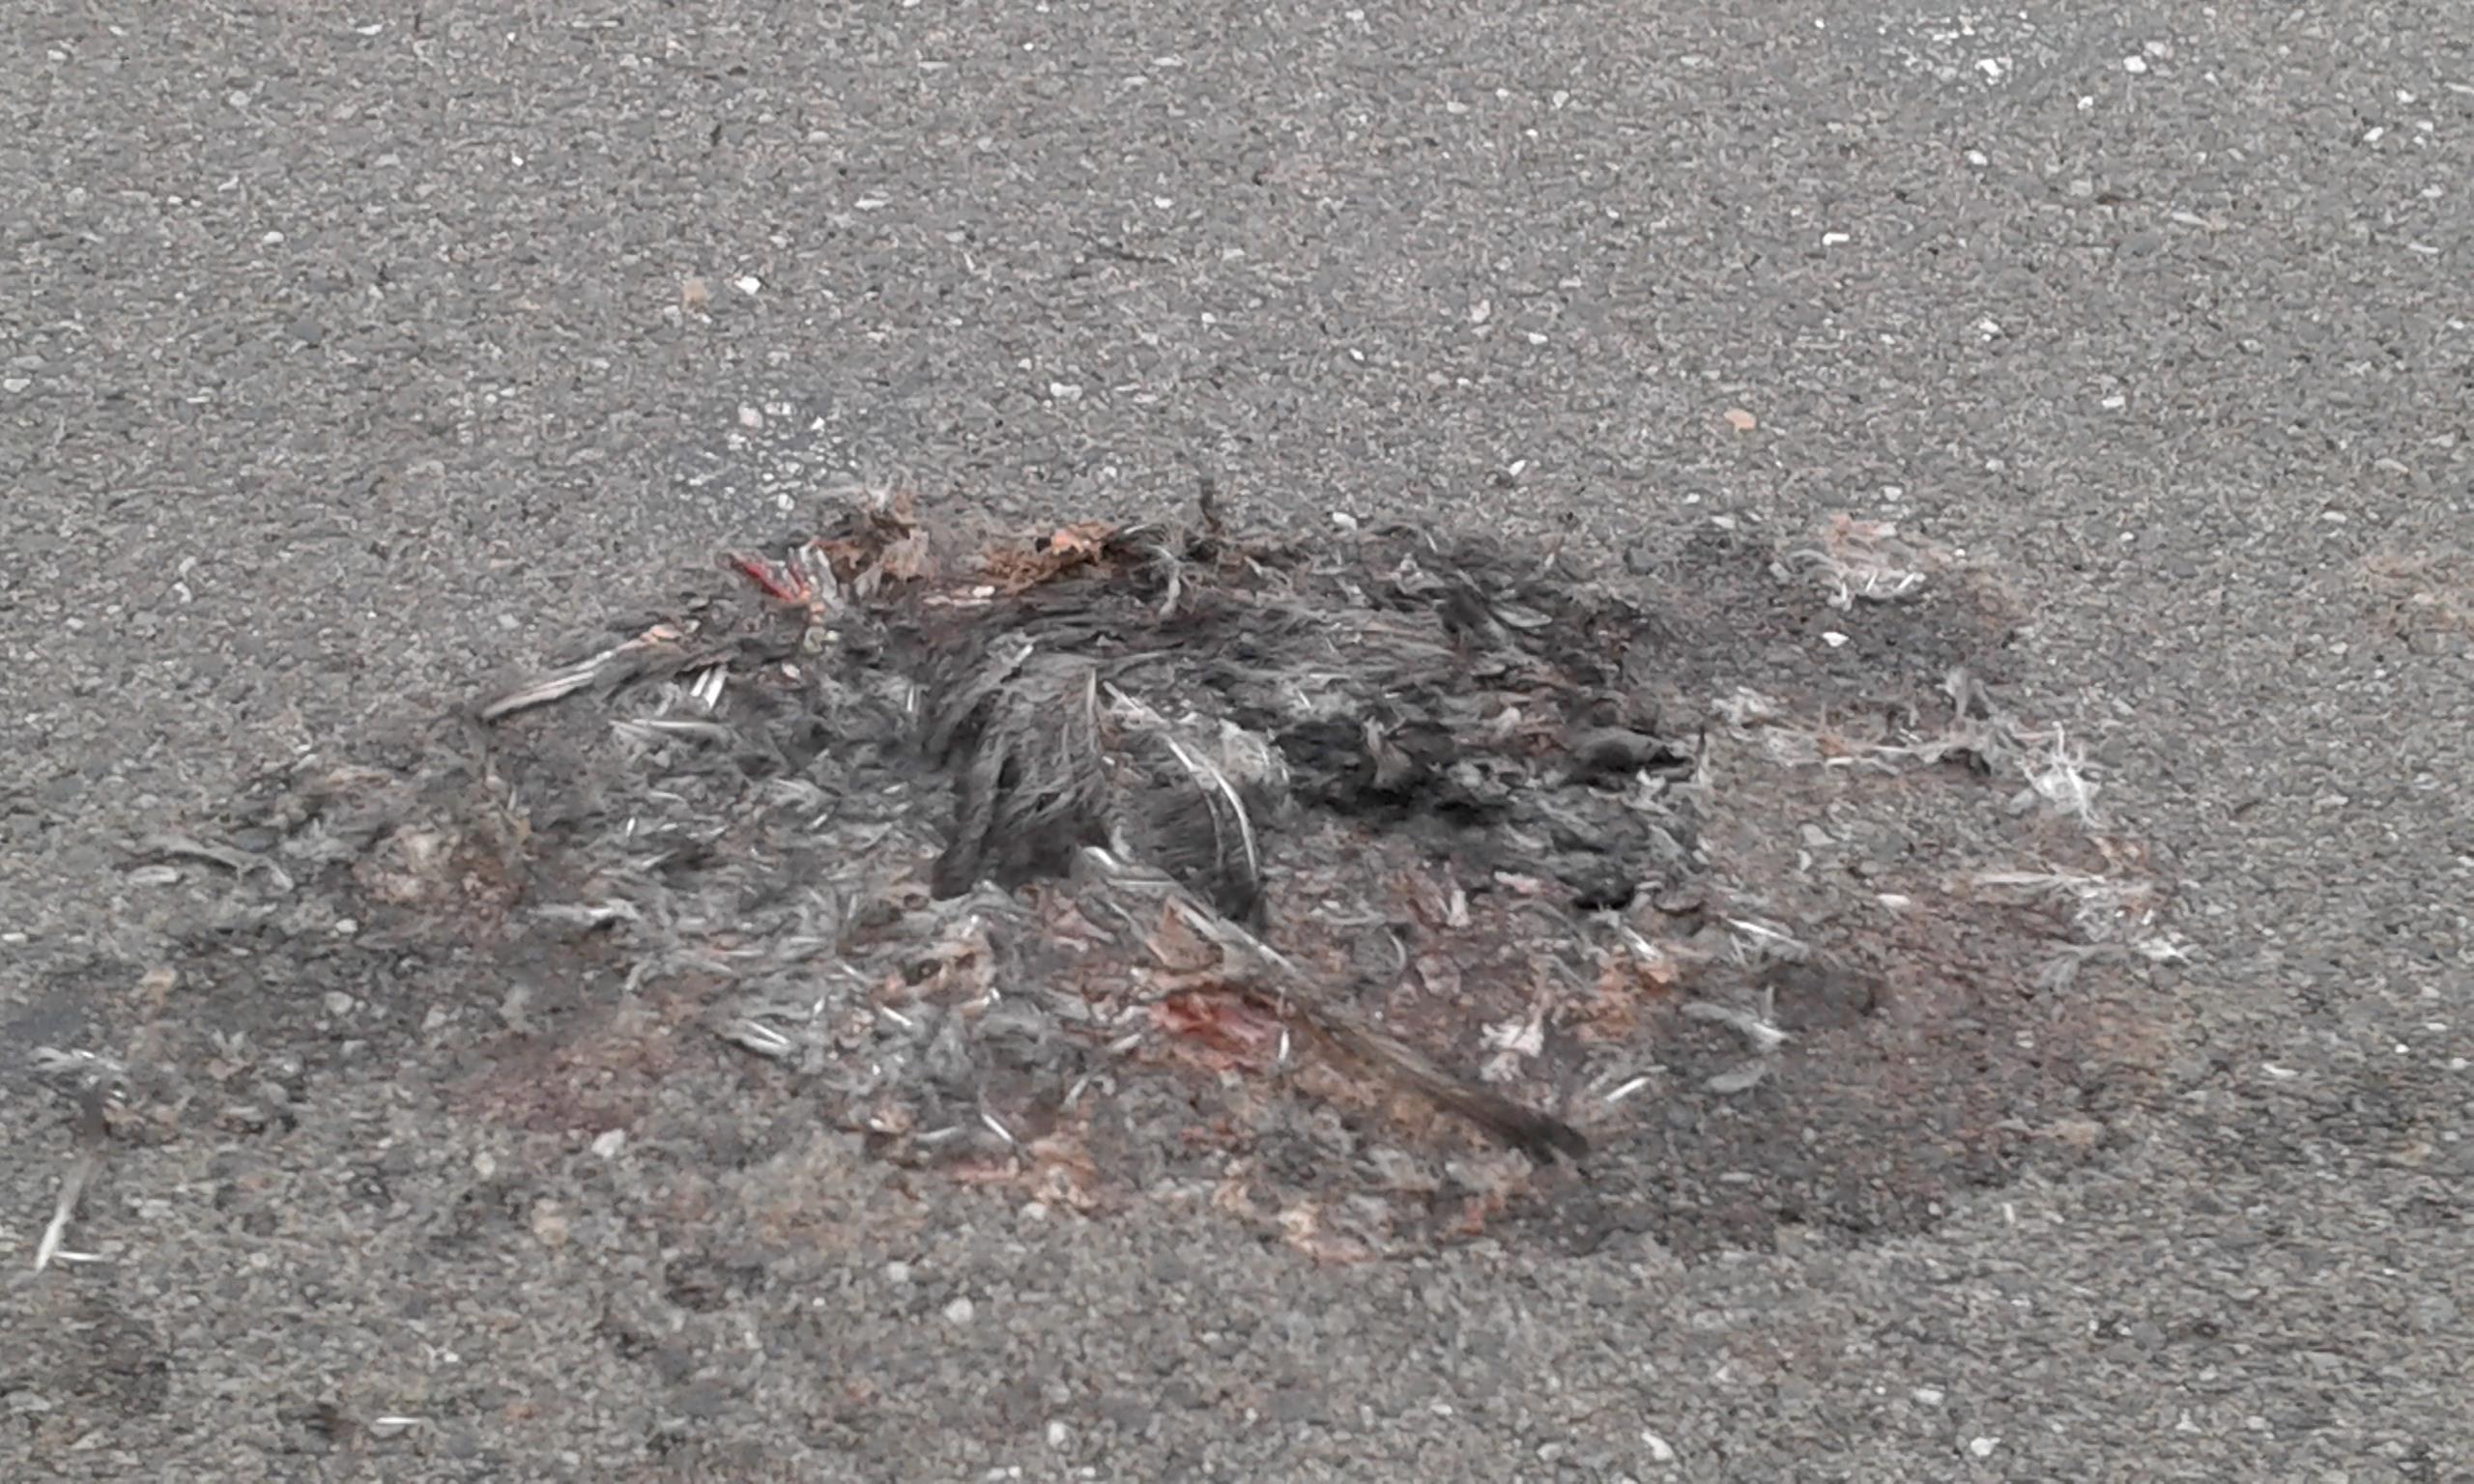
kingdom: Animalia
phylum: Chordata
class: Aves
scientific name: Aves
